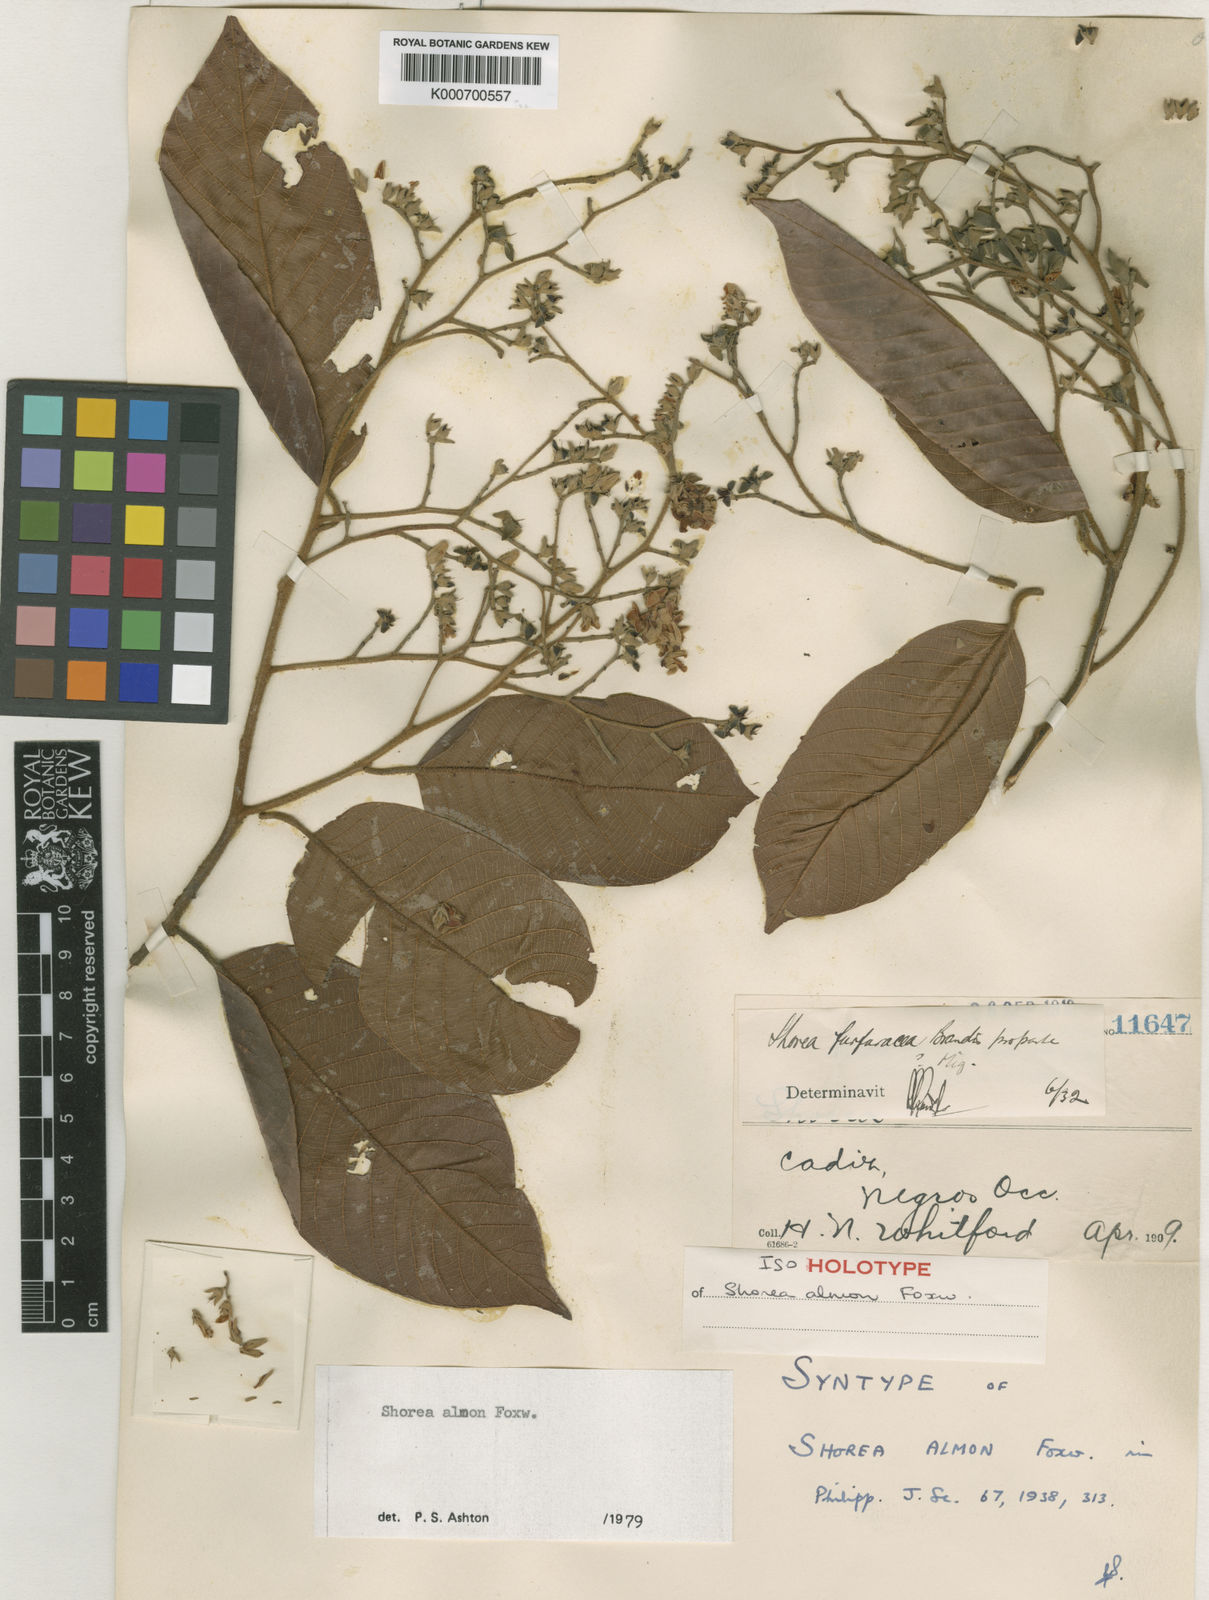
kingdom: Plantae
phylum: Tracheophyta
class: Magnoliopsida
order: Malvales
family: Dipterocarpaceae
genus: Shorea
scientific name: Shorea almon
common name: Light red meranti
